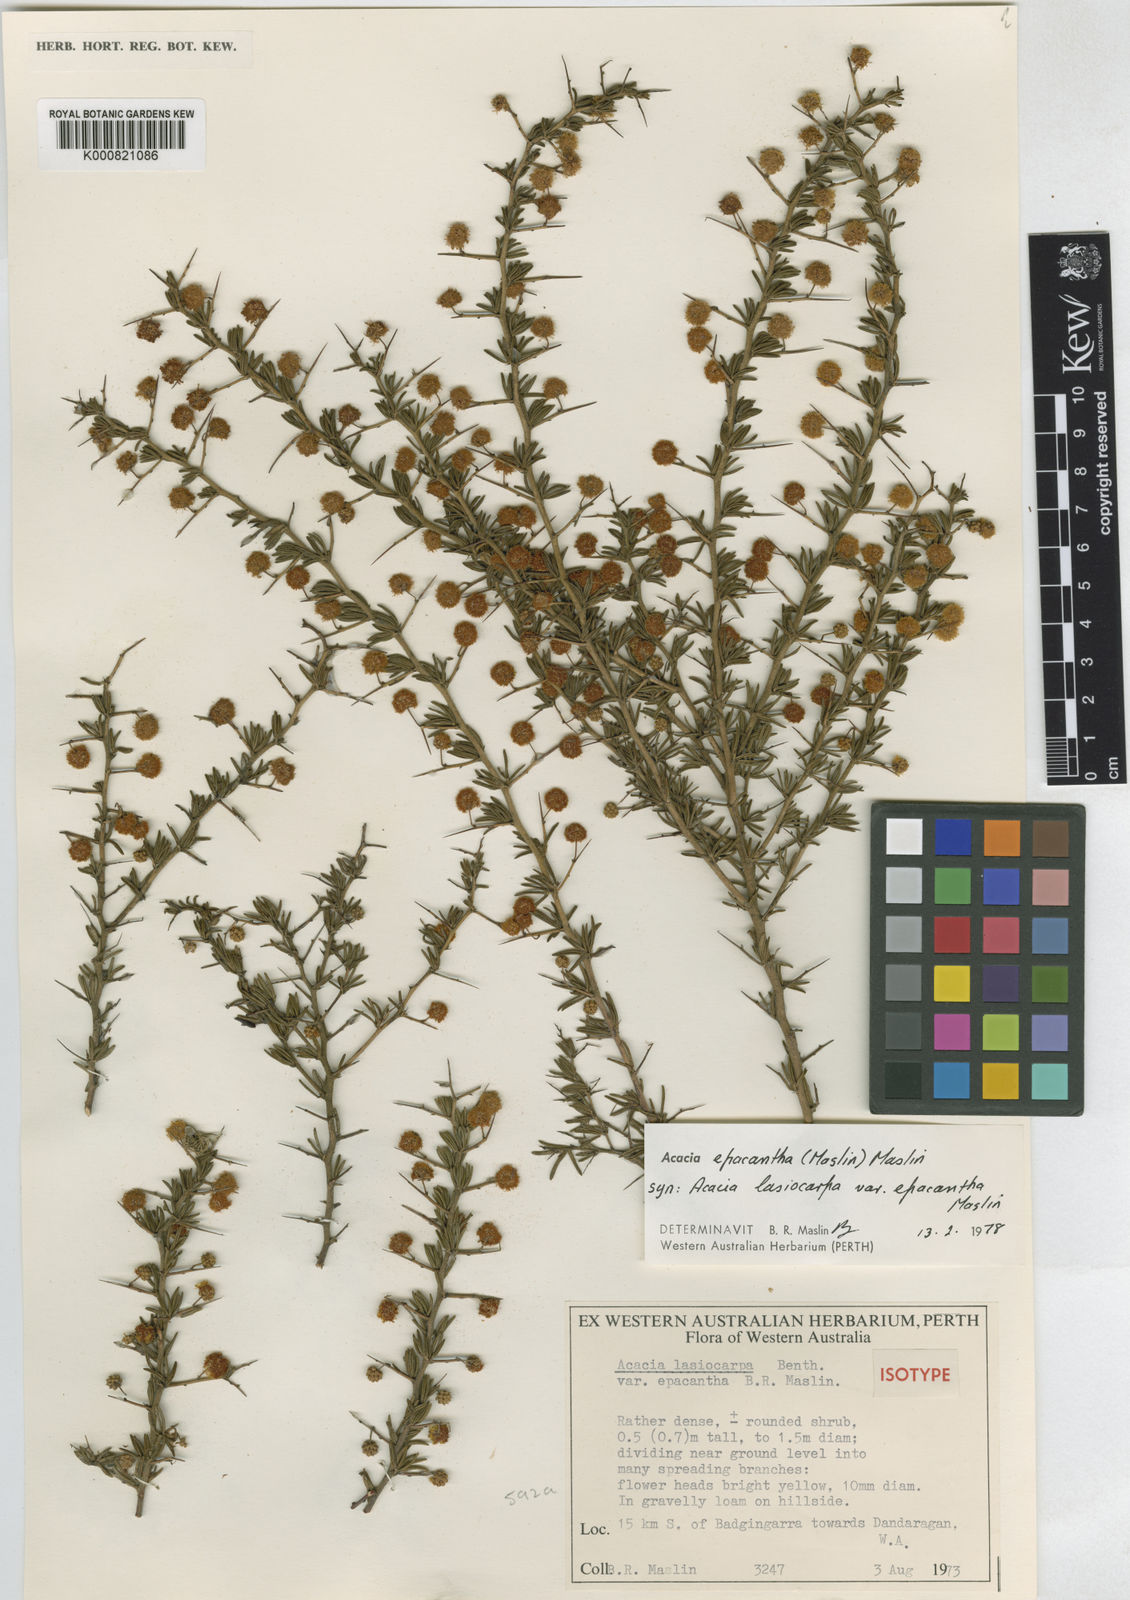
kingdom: Plantae
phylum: Tracheophyta
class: Magnoliopsida
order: Fabales
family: Fabaceae
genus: Acacia
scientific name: Acacia epacantha
